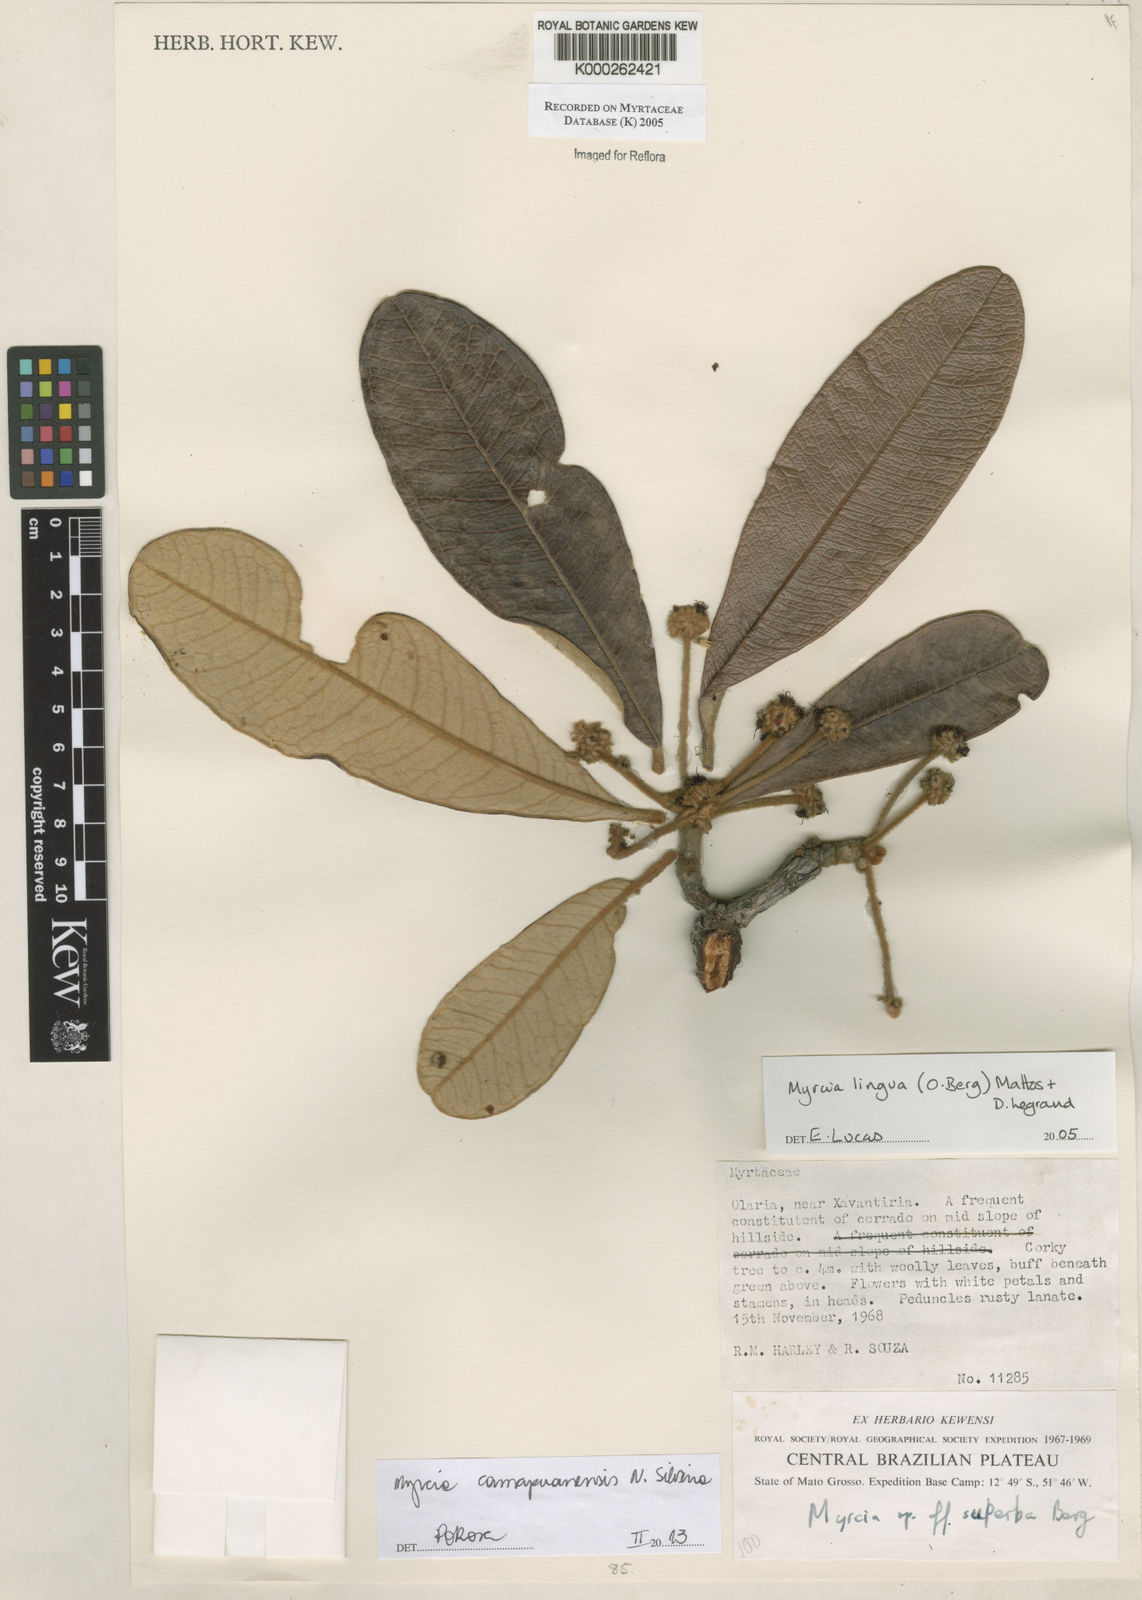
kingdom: Plantae
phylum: Tracheophyta
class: Magnoliopsida
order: Myrtales
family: Myrtaceae
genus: Myrcia
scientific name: Myrcia guianensis
